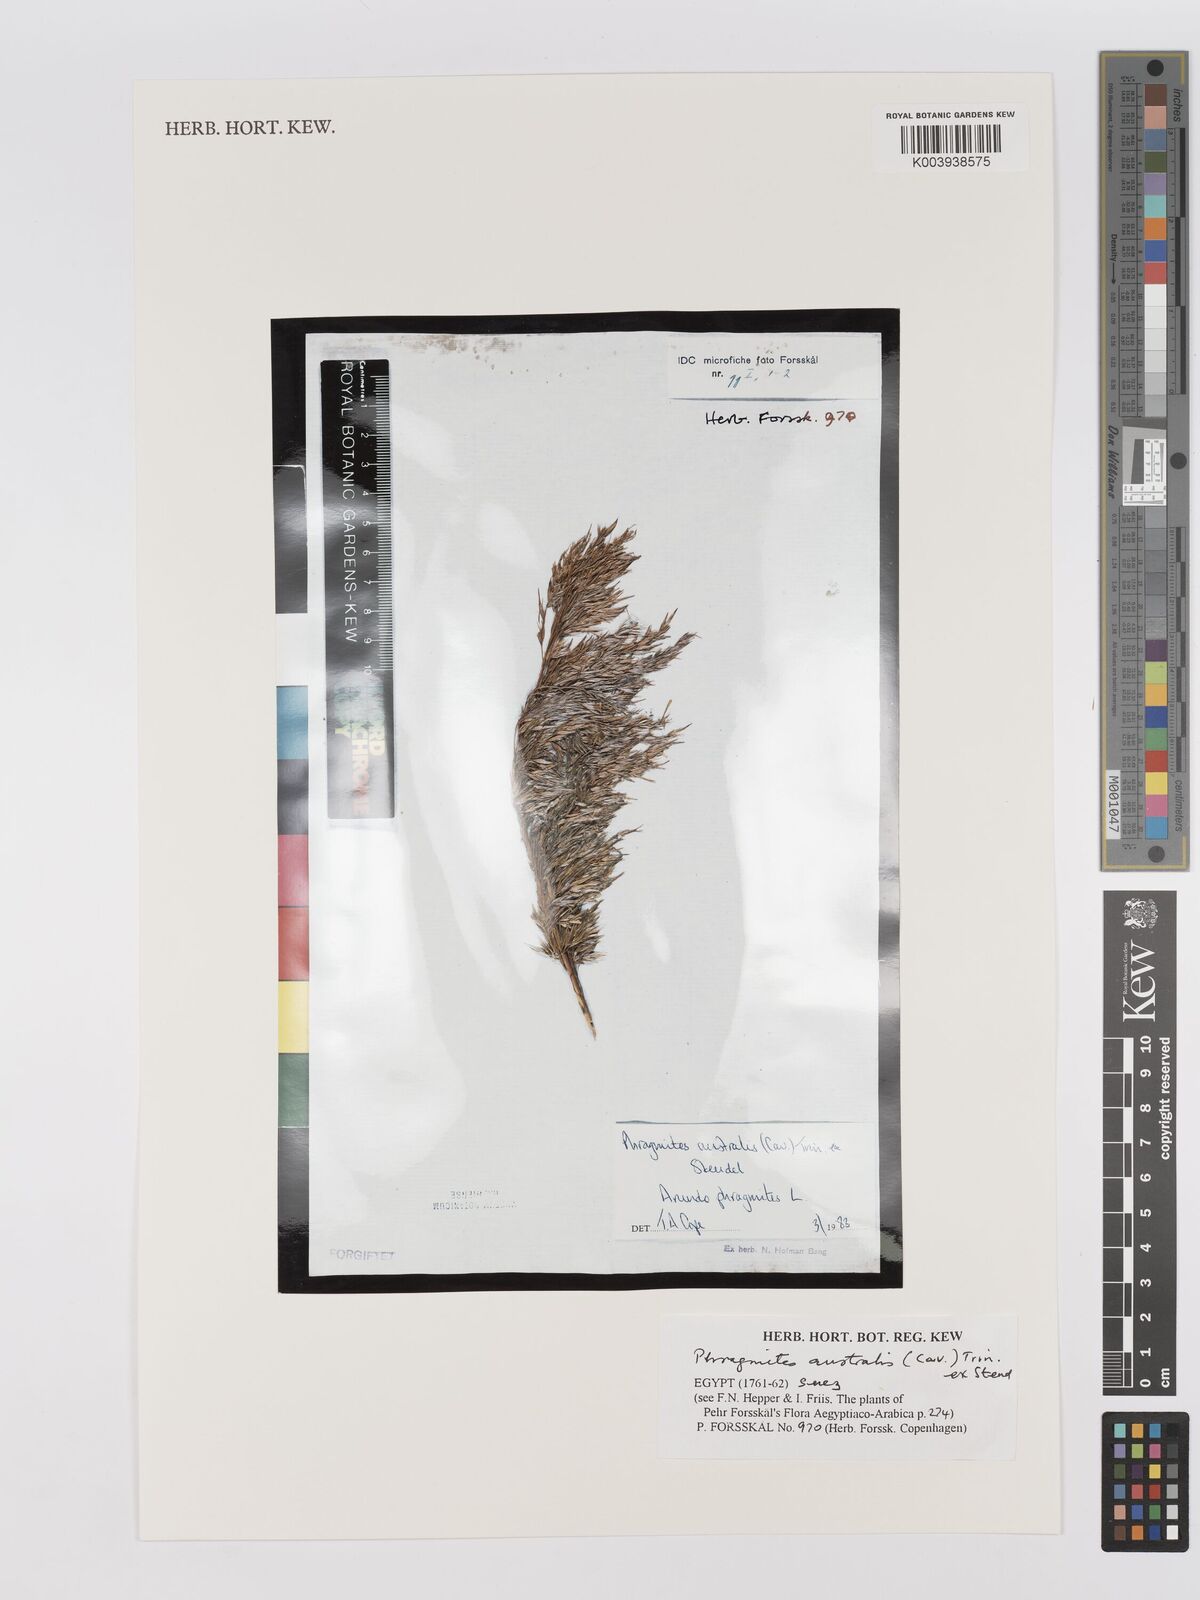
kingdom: Plantae
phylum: Tracheophyta
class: Liliopsida
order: Poales
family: Poaceae
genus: Phragmites
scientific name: Phragmites australis
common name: Common reed
